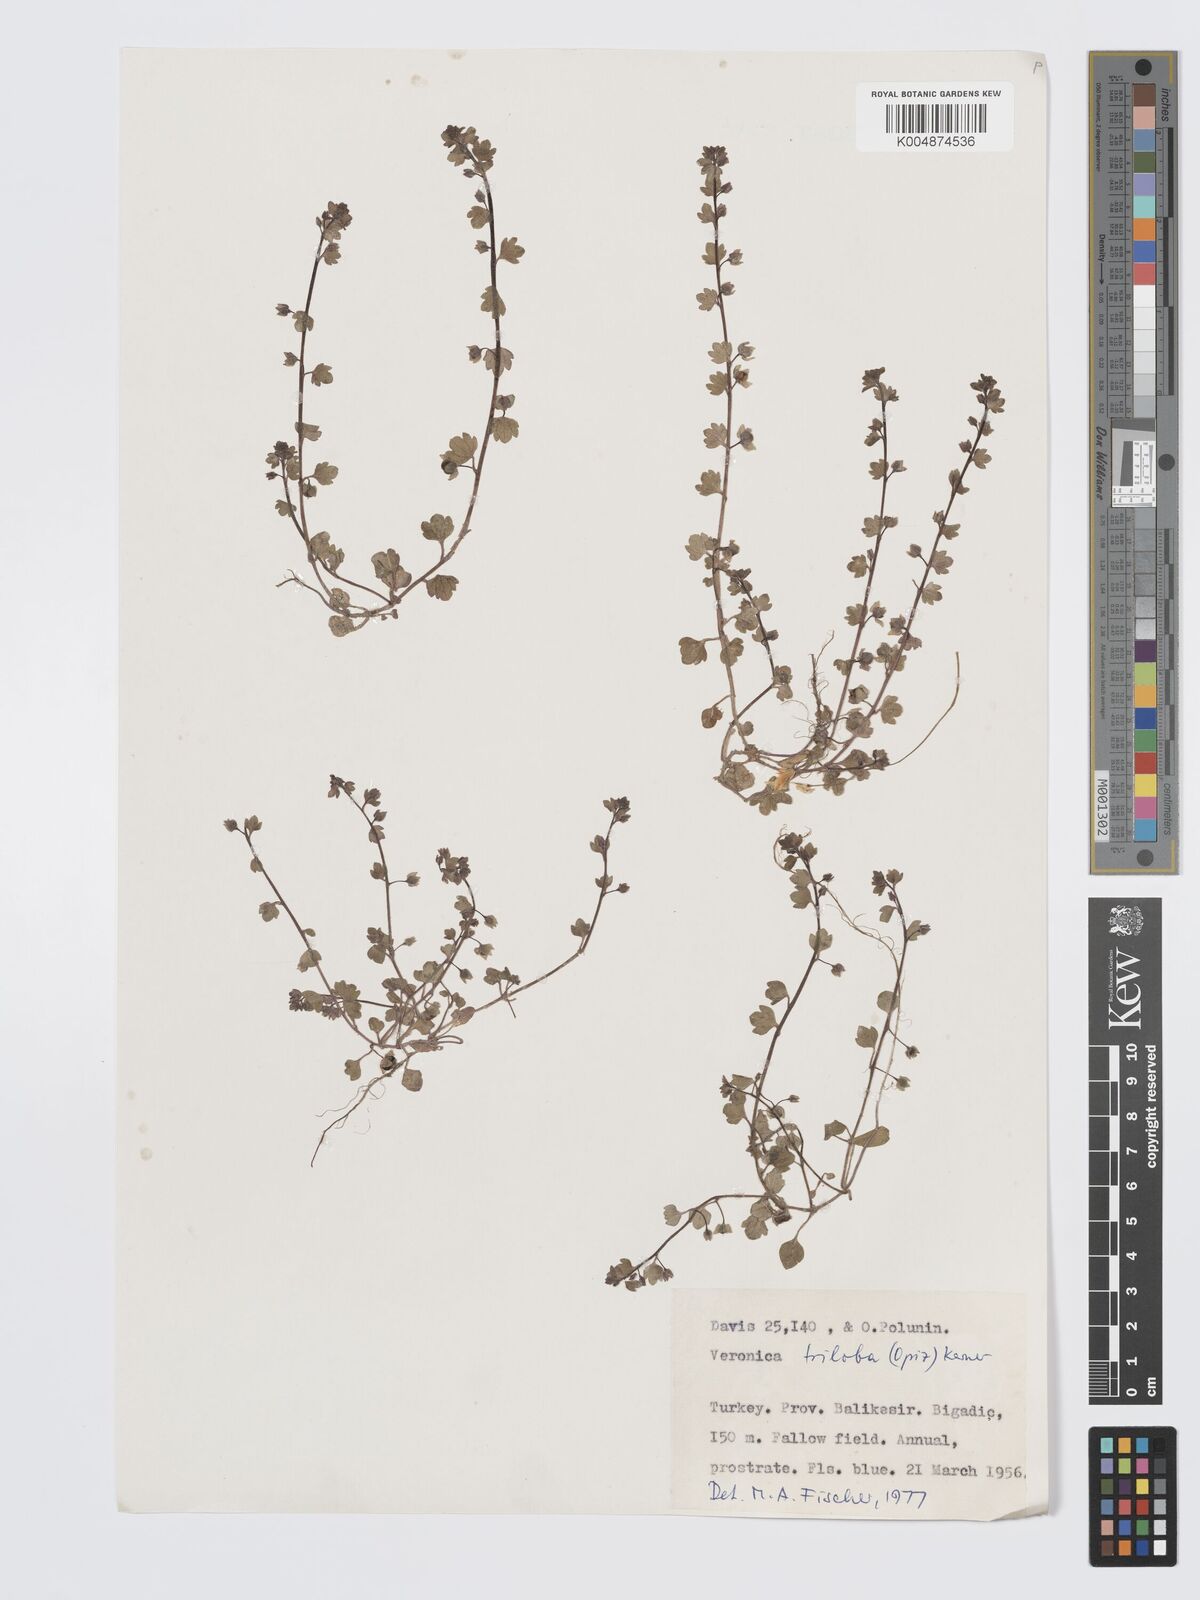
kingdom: Plantae
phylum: Tracheophyta
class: Magnoliopsida
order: Lamiales
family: Plantaginaceae
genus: Veronica
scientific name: Veronica triloba
